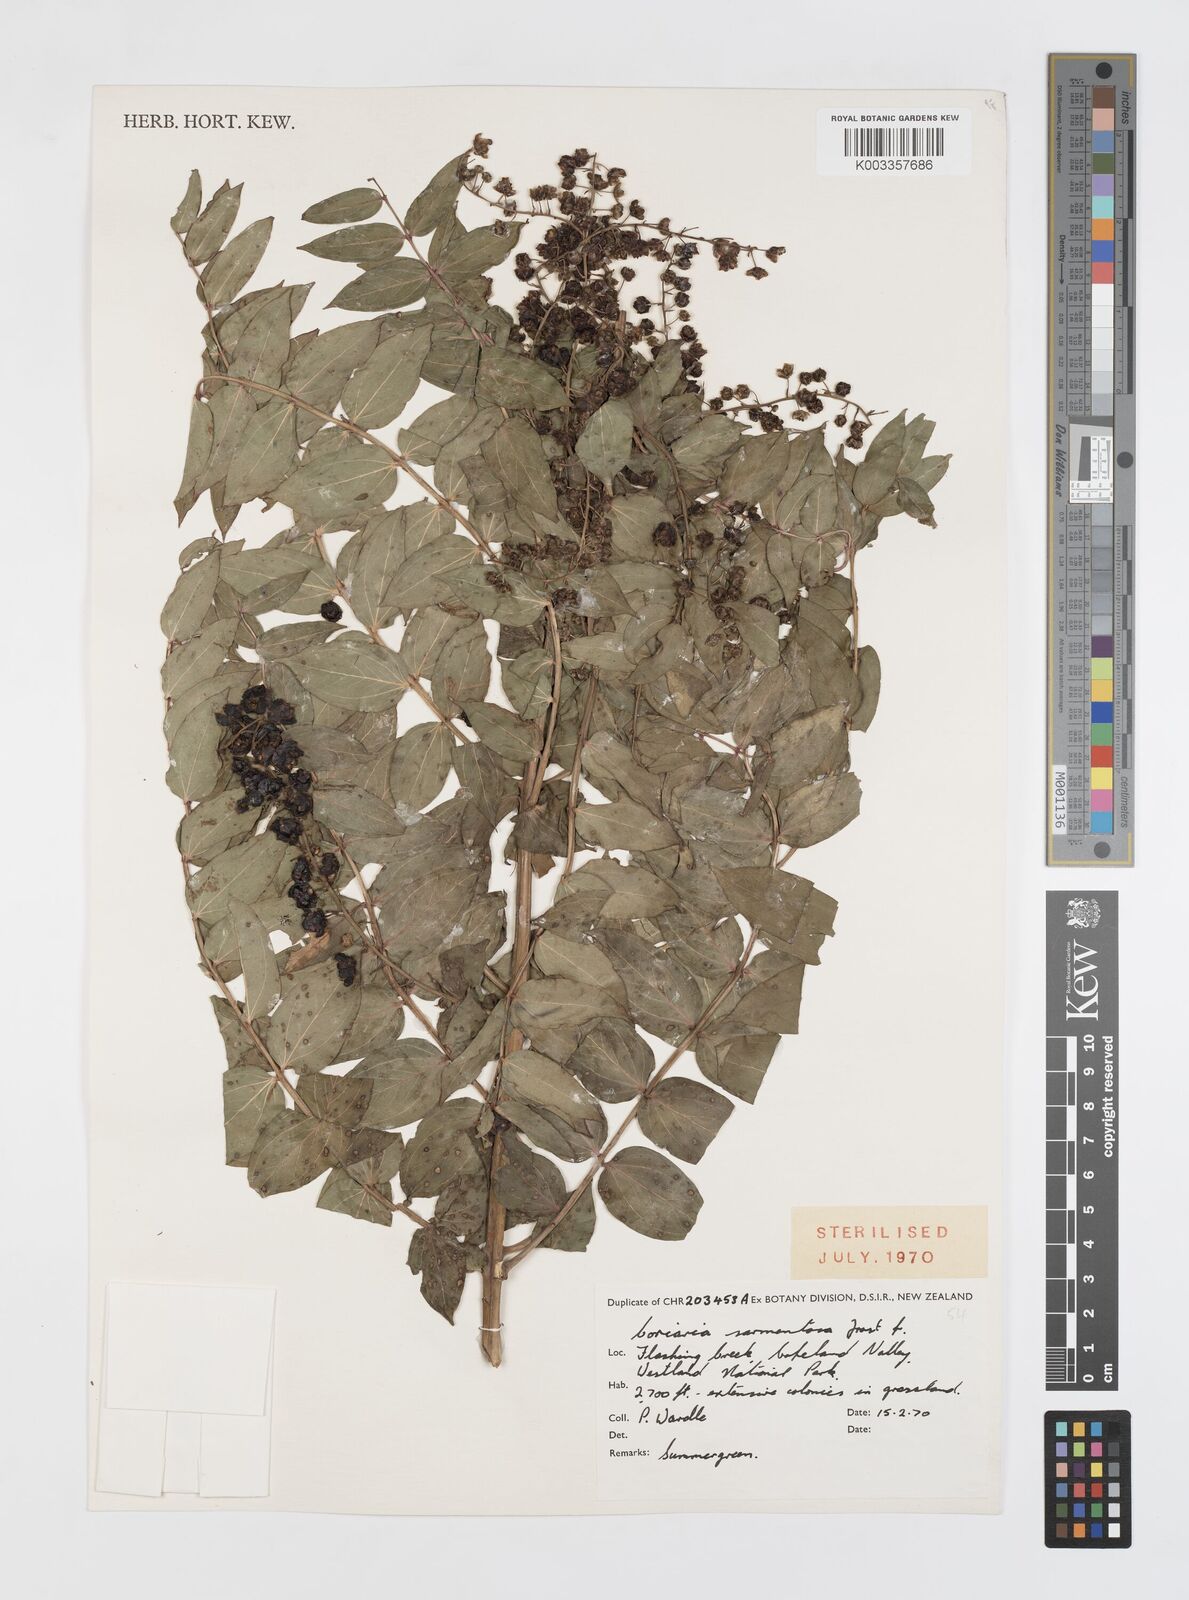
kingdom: Plantae
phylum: Tracheophyta
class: Magnoliopsida
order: Cucurbitales
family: Coriariaceae
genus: Coriaria
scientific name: Coriaria sarmentosa
